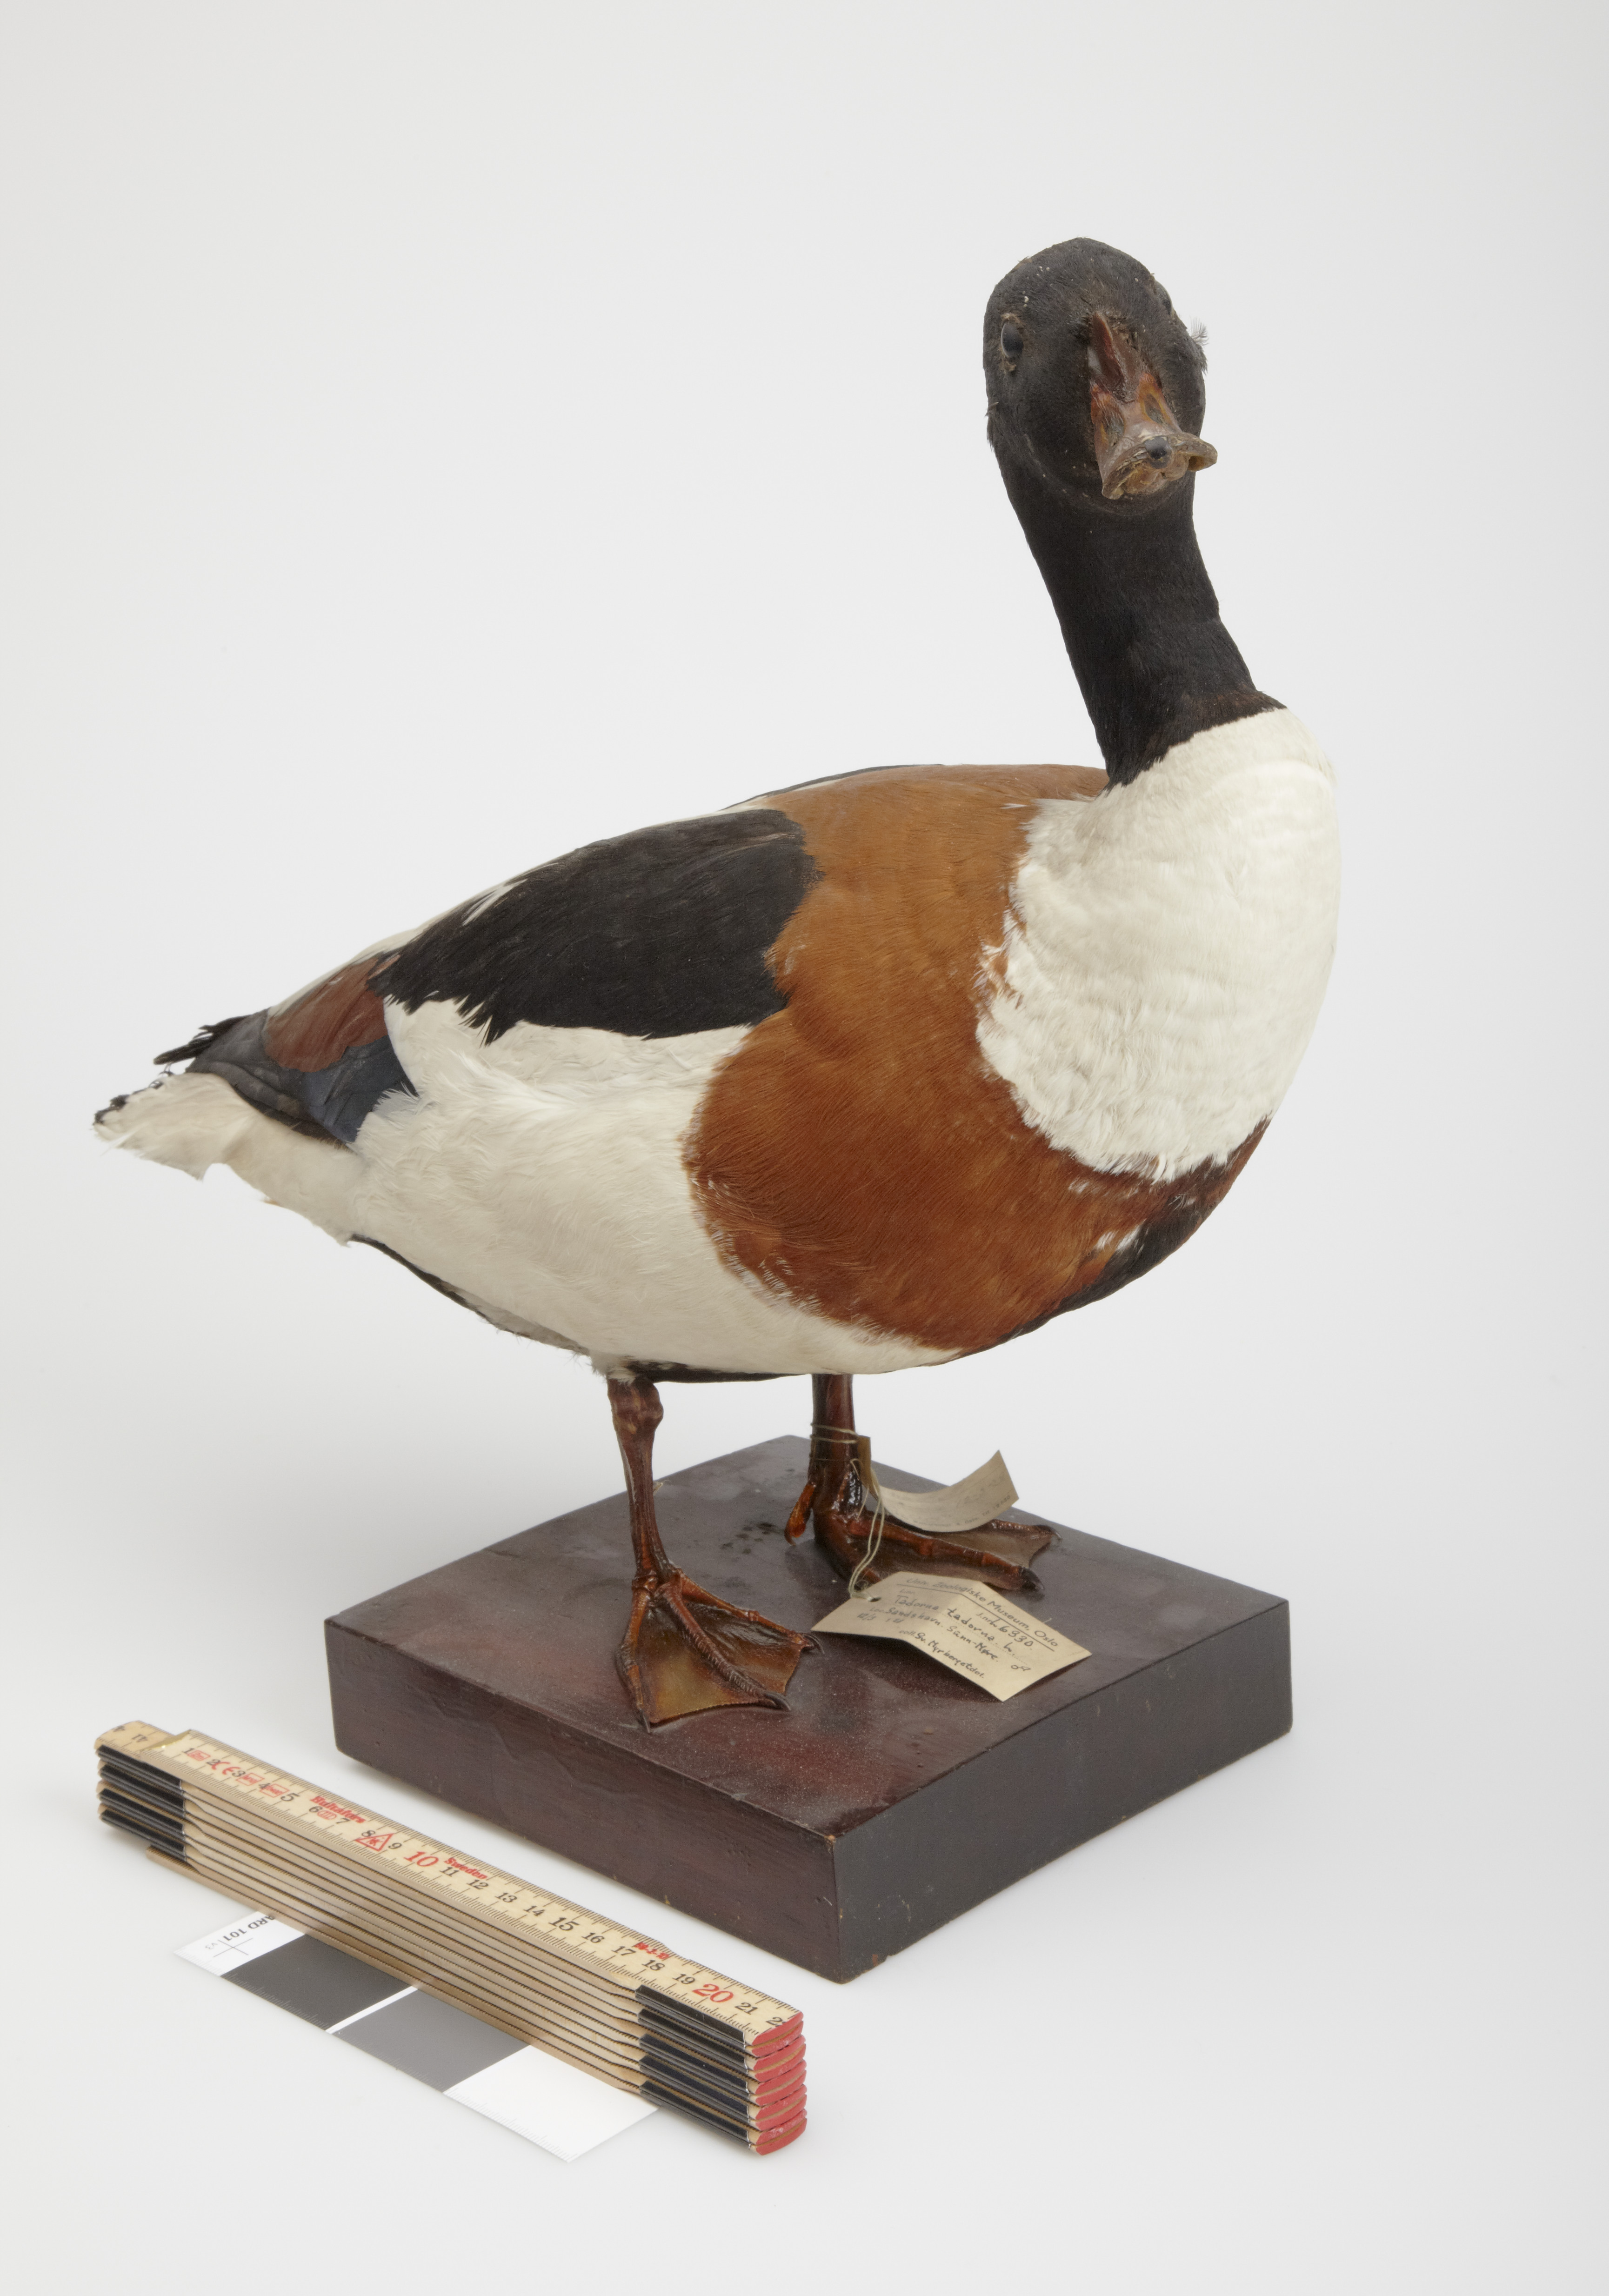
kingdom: Animalia
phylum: Chordata
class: Aves
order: Anseriformes
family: Anatidae
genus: Tadorna
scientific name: Tadorna tadorna
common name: Common shelduck
